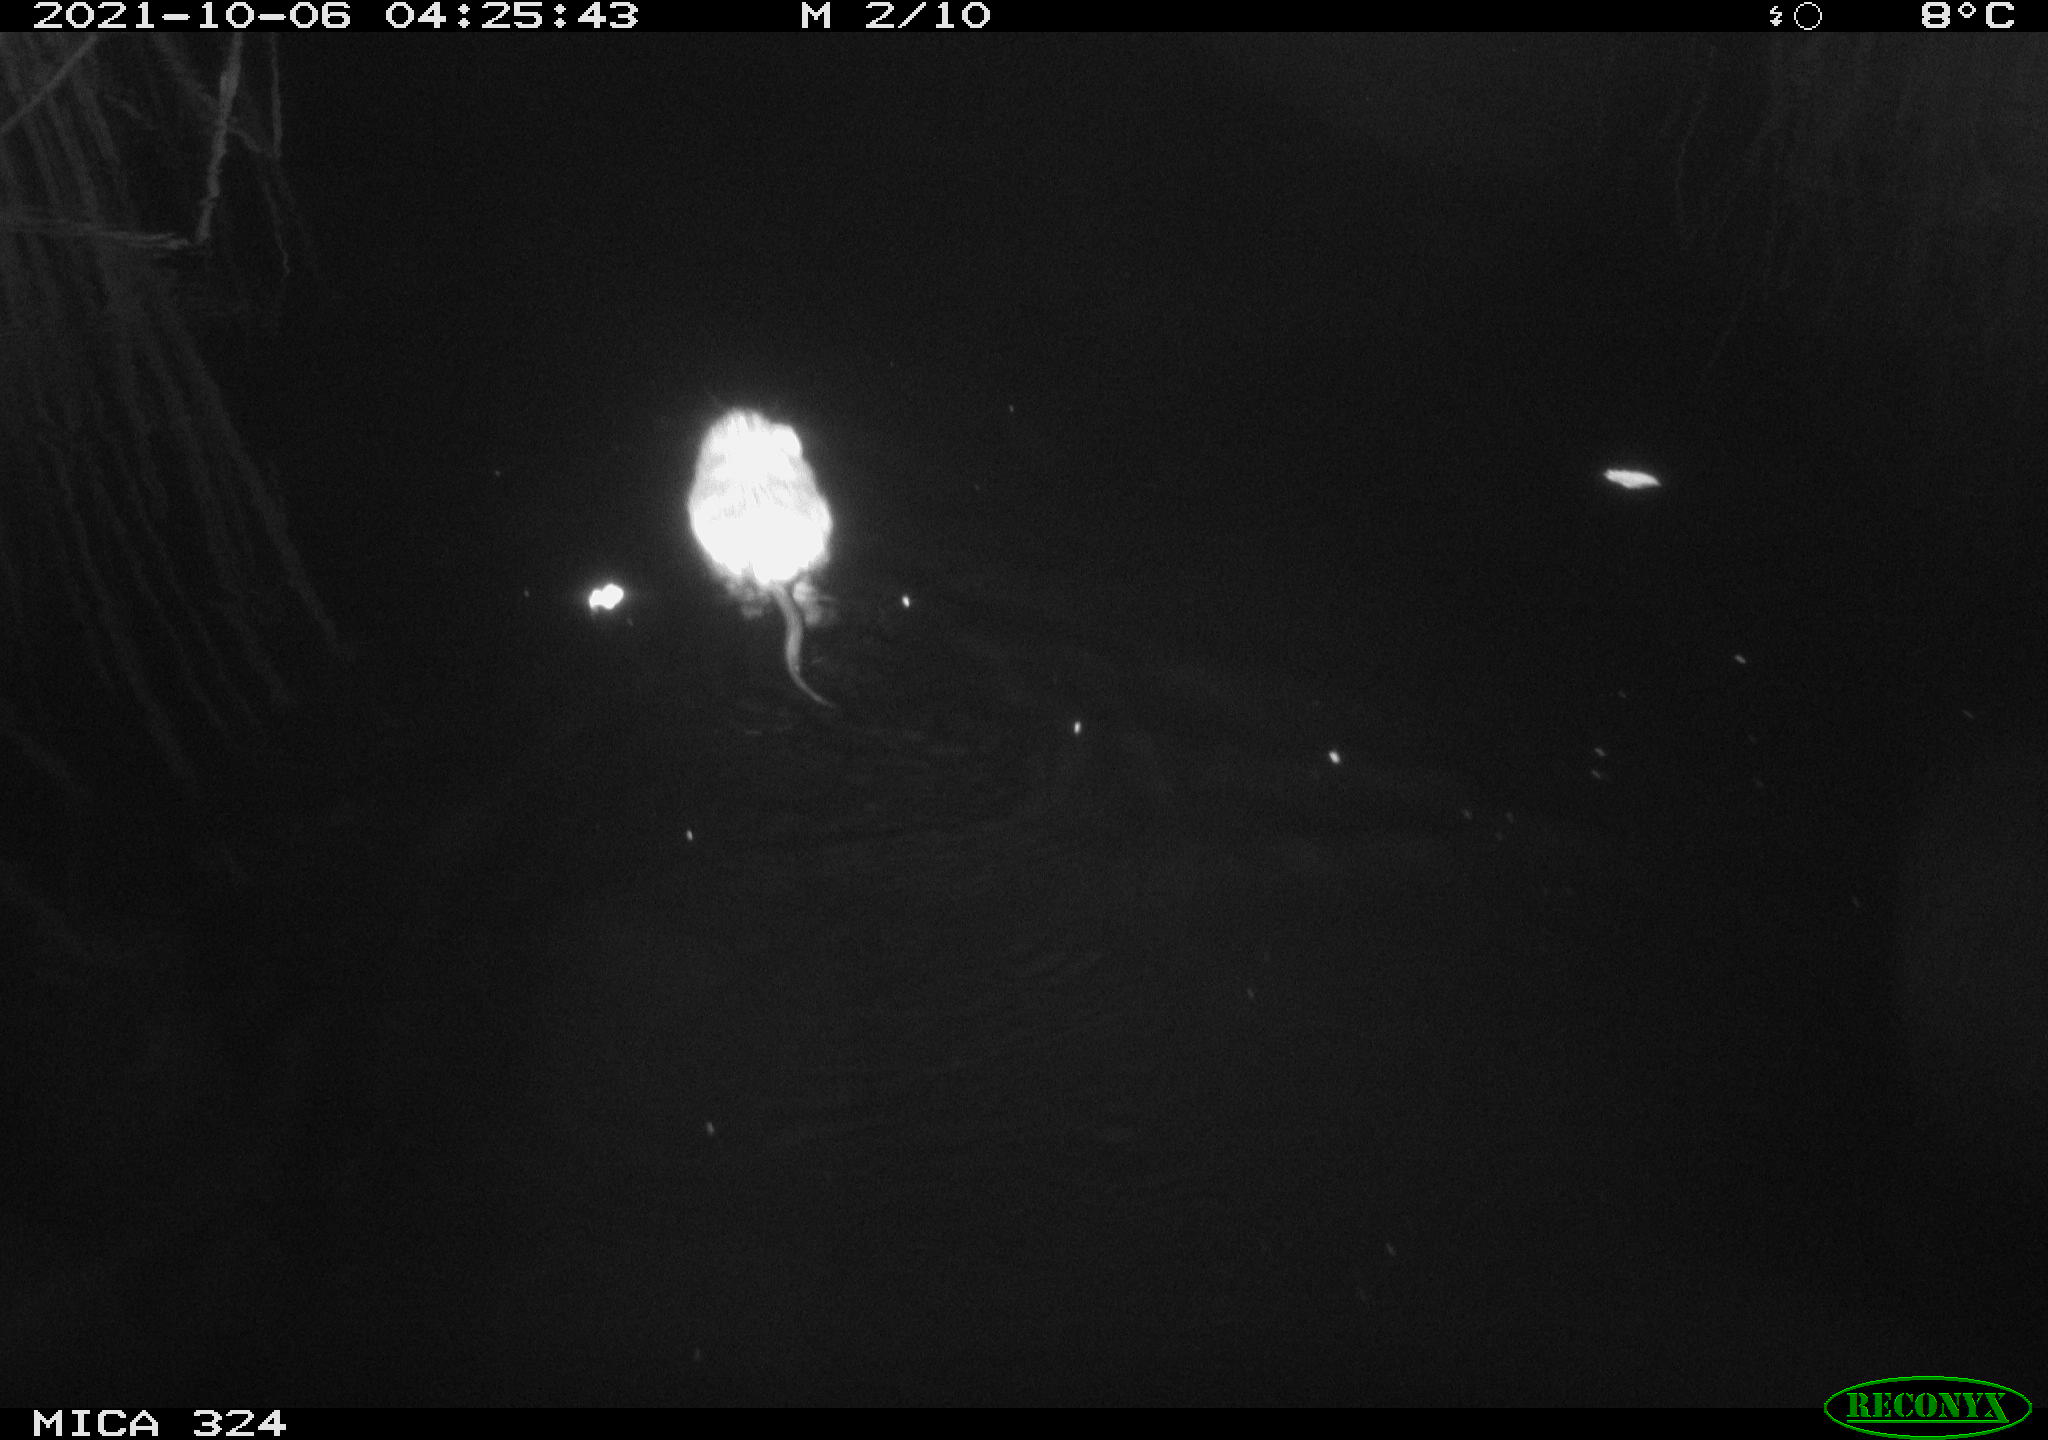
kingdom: Animalia
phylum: Chordata
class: Mammalia
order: Rodentia
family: Cricetidae
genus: Ondatra
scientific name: Ondatra zibethicus
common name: Muskrat
